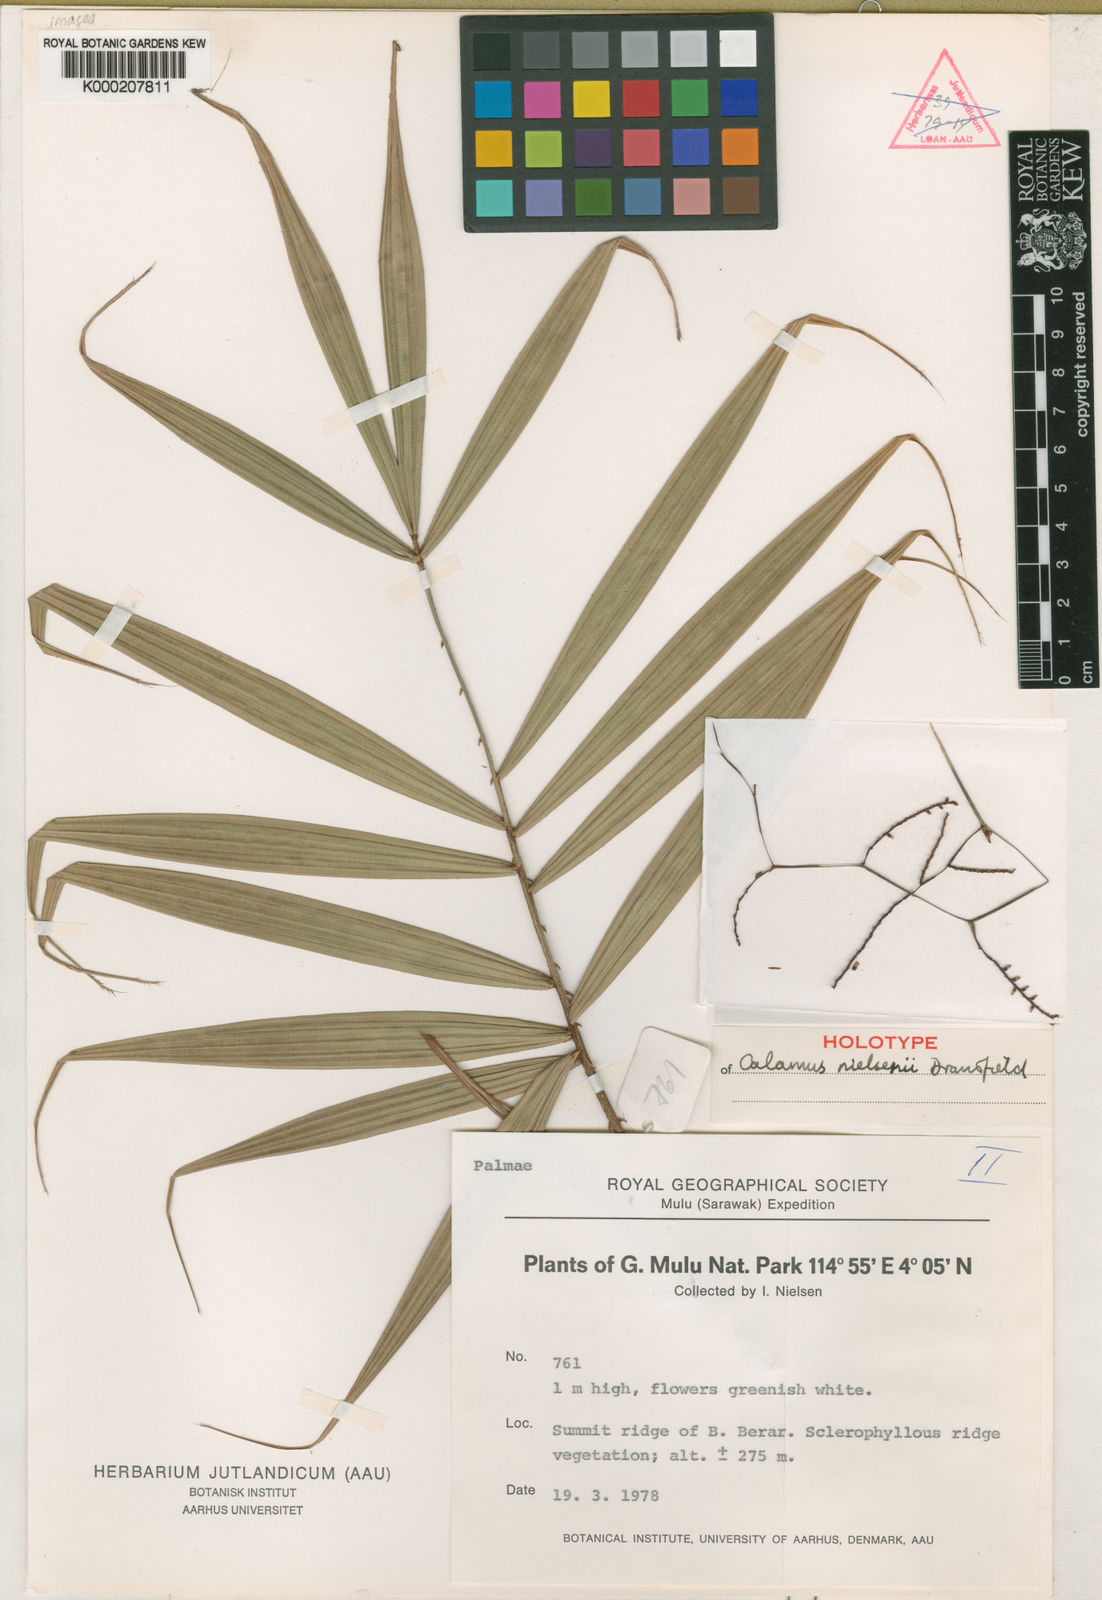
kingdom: Plantae
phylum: Tracheophyta
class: Liliopsida
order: Arecales
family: Arecaceae
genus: Calamus
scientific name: Calamus nielsenii
